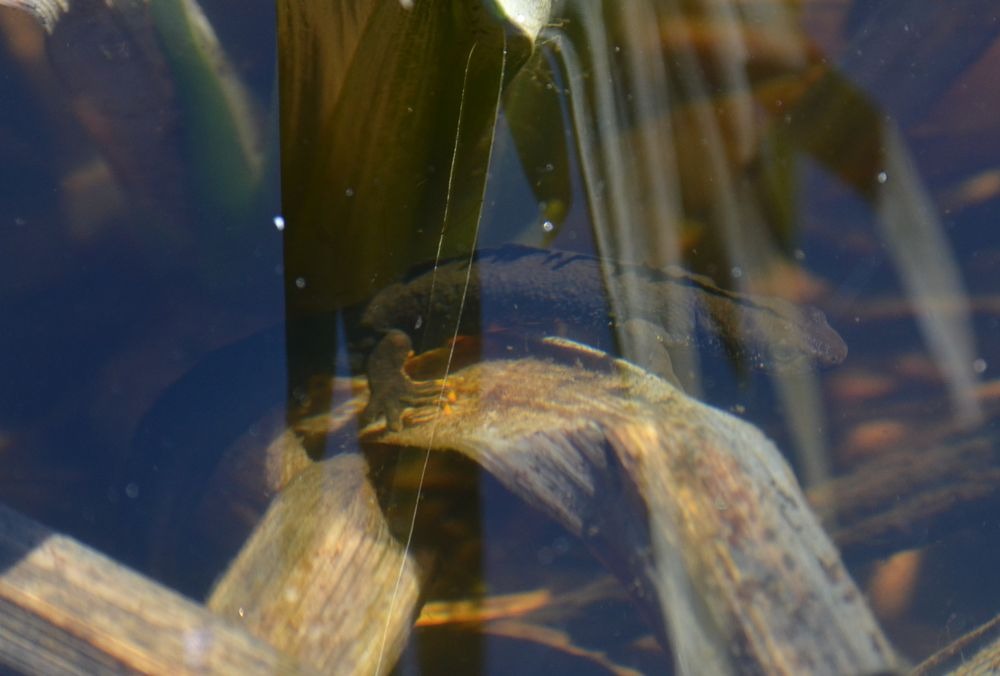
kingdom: Animalia
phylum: Chordata
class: Amphibia
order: Caudata
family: Salamandridae
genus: Triturus
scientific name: Triturus cristatus
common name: Stor vandsalamander
